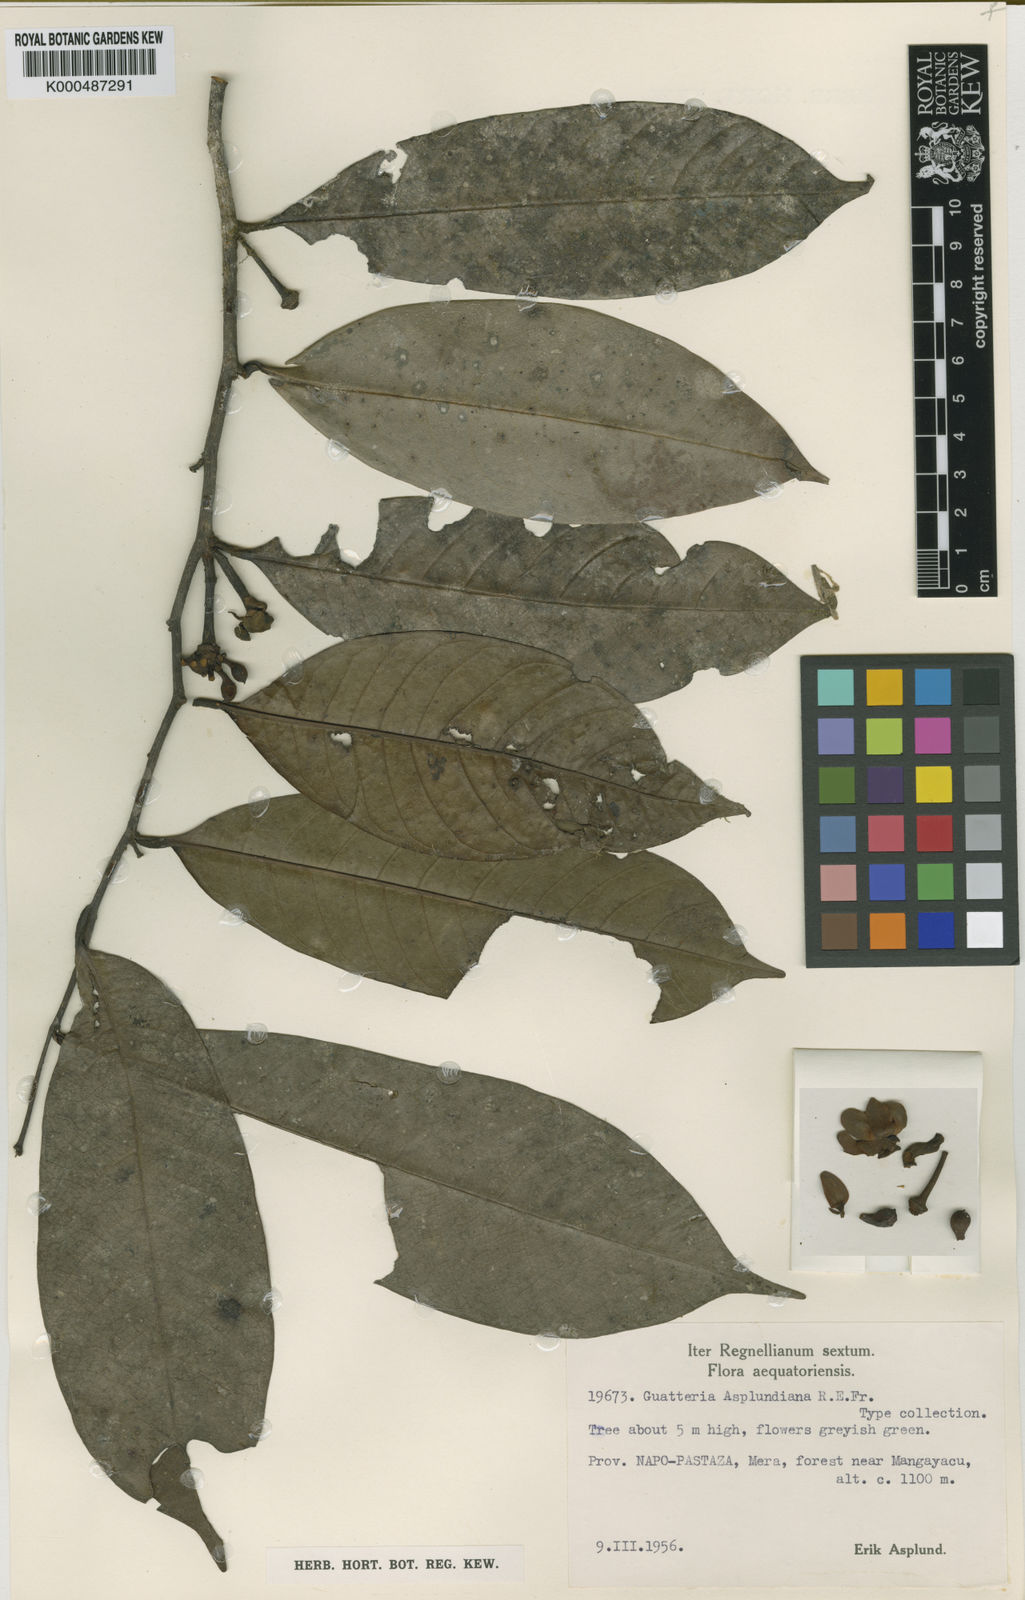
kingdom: Plantae
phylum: Tracheophyta
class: Magnoliopsida
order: Magnoliales
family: Annonaceae
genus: Guatteria
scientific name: Guatteria punctata
